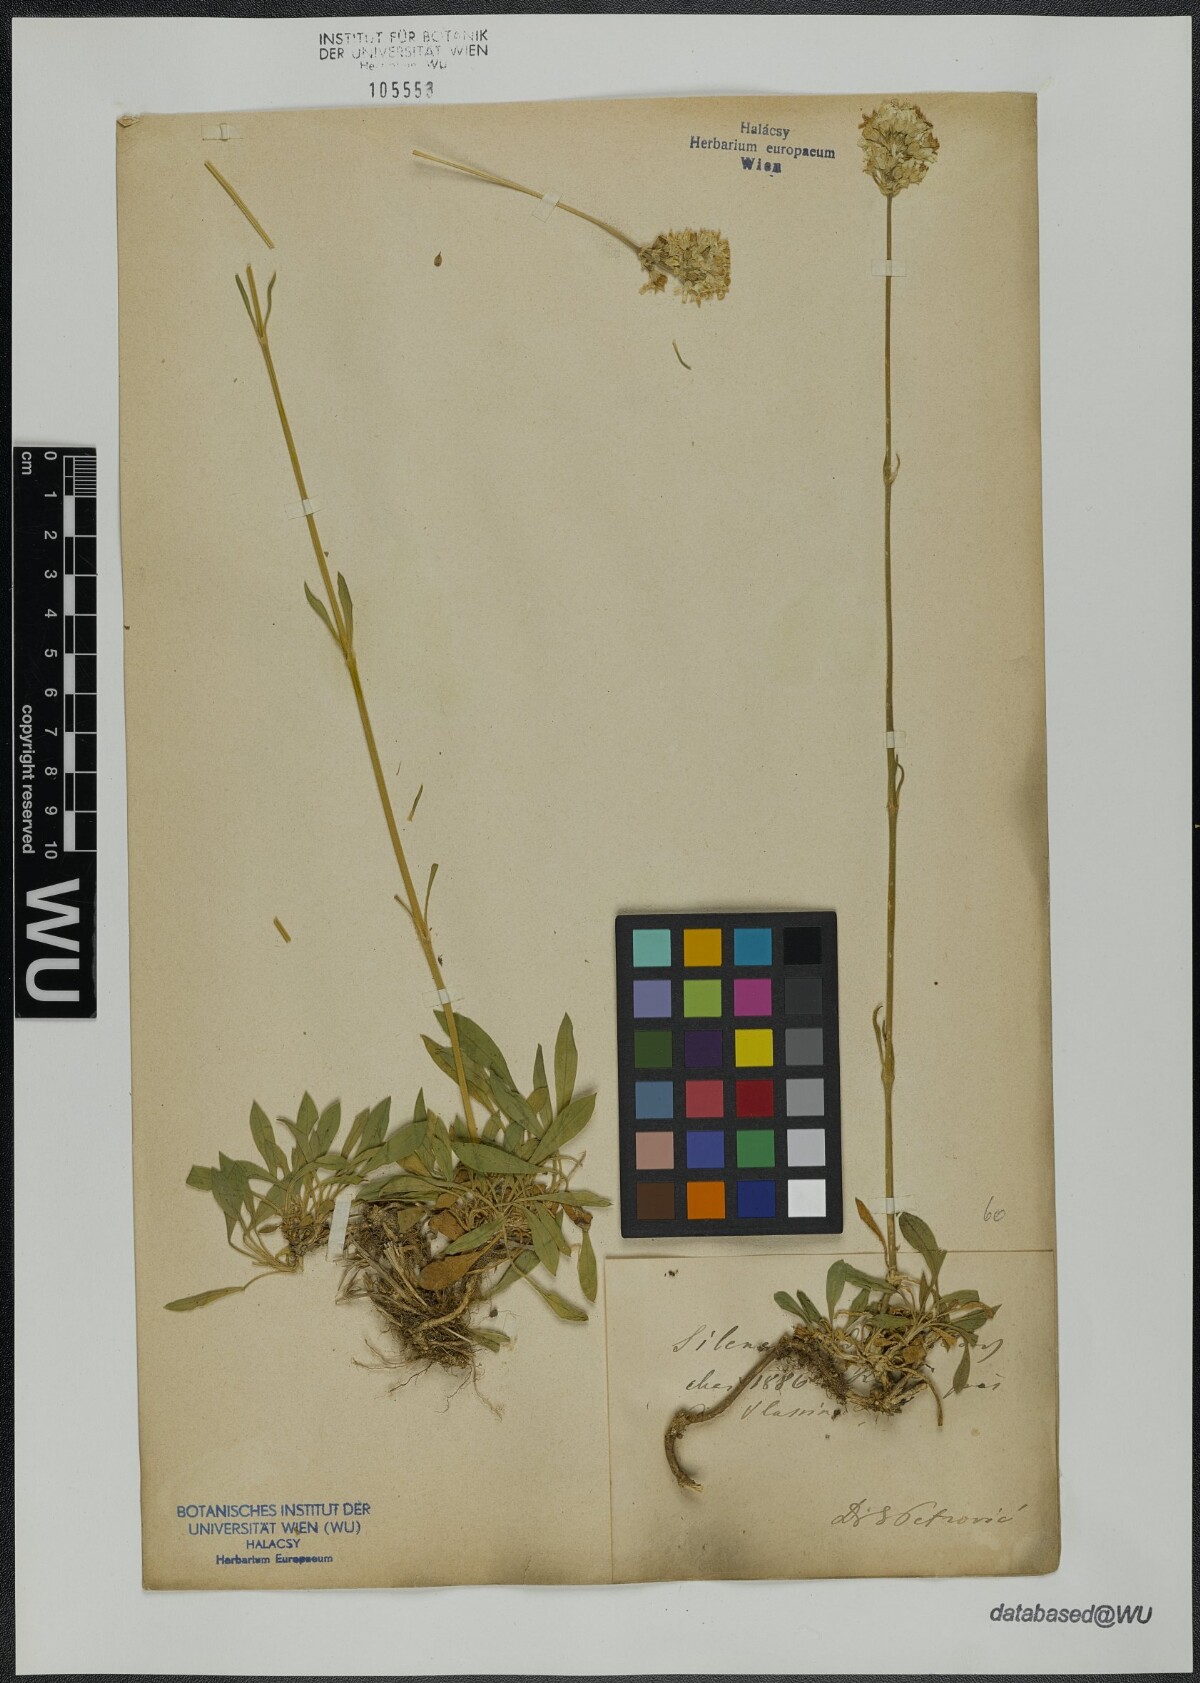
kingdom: Plantae
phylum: Tracheophyta
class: Magnoliopsida
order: Caryophyllales
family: Caryophyllaceae
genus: Silene
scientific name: Silene sendtneri
